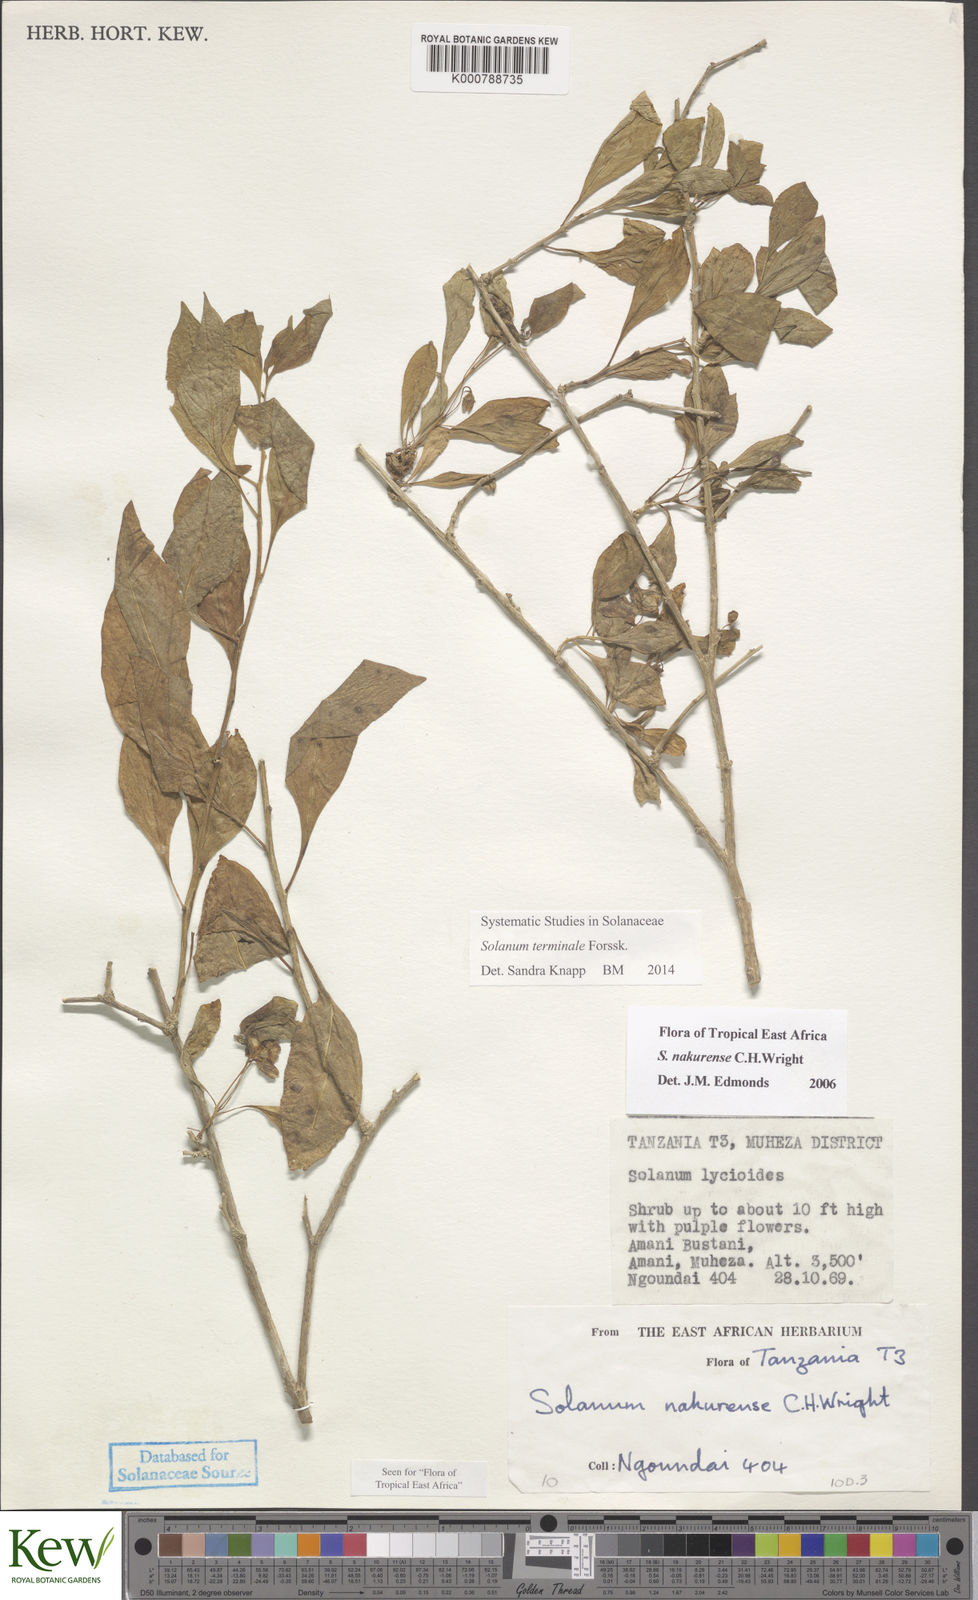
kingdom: Plantae
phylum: Tracheophyta
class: Magnoliopsida
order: Solanales
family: Solanaceae
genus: Solanum
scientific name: Solanum nakurense
